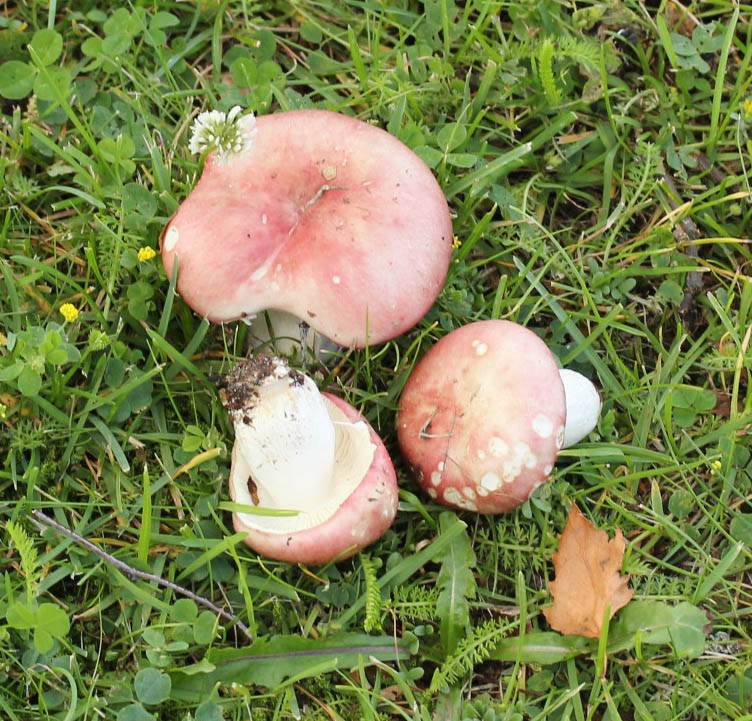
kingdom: Fungi
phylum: Basidiomycota
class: Agaricomycetes
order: Russulales
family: Russulaceae
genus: Russula
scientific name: Russula depallens
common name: falmende skørhat
